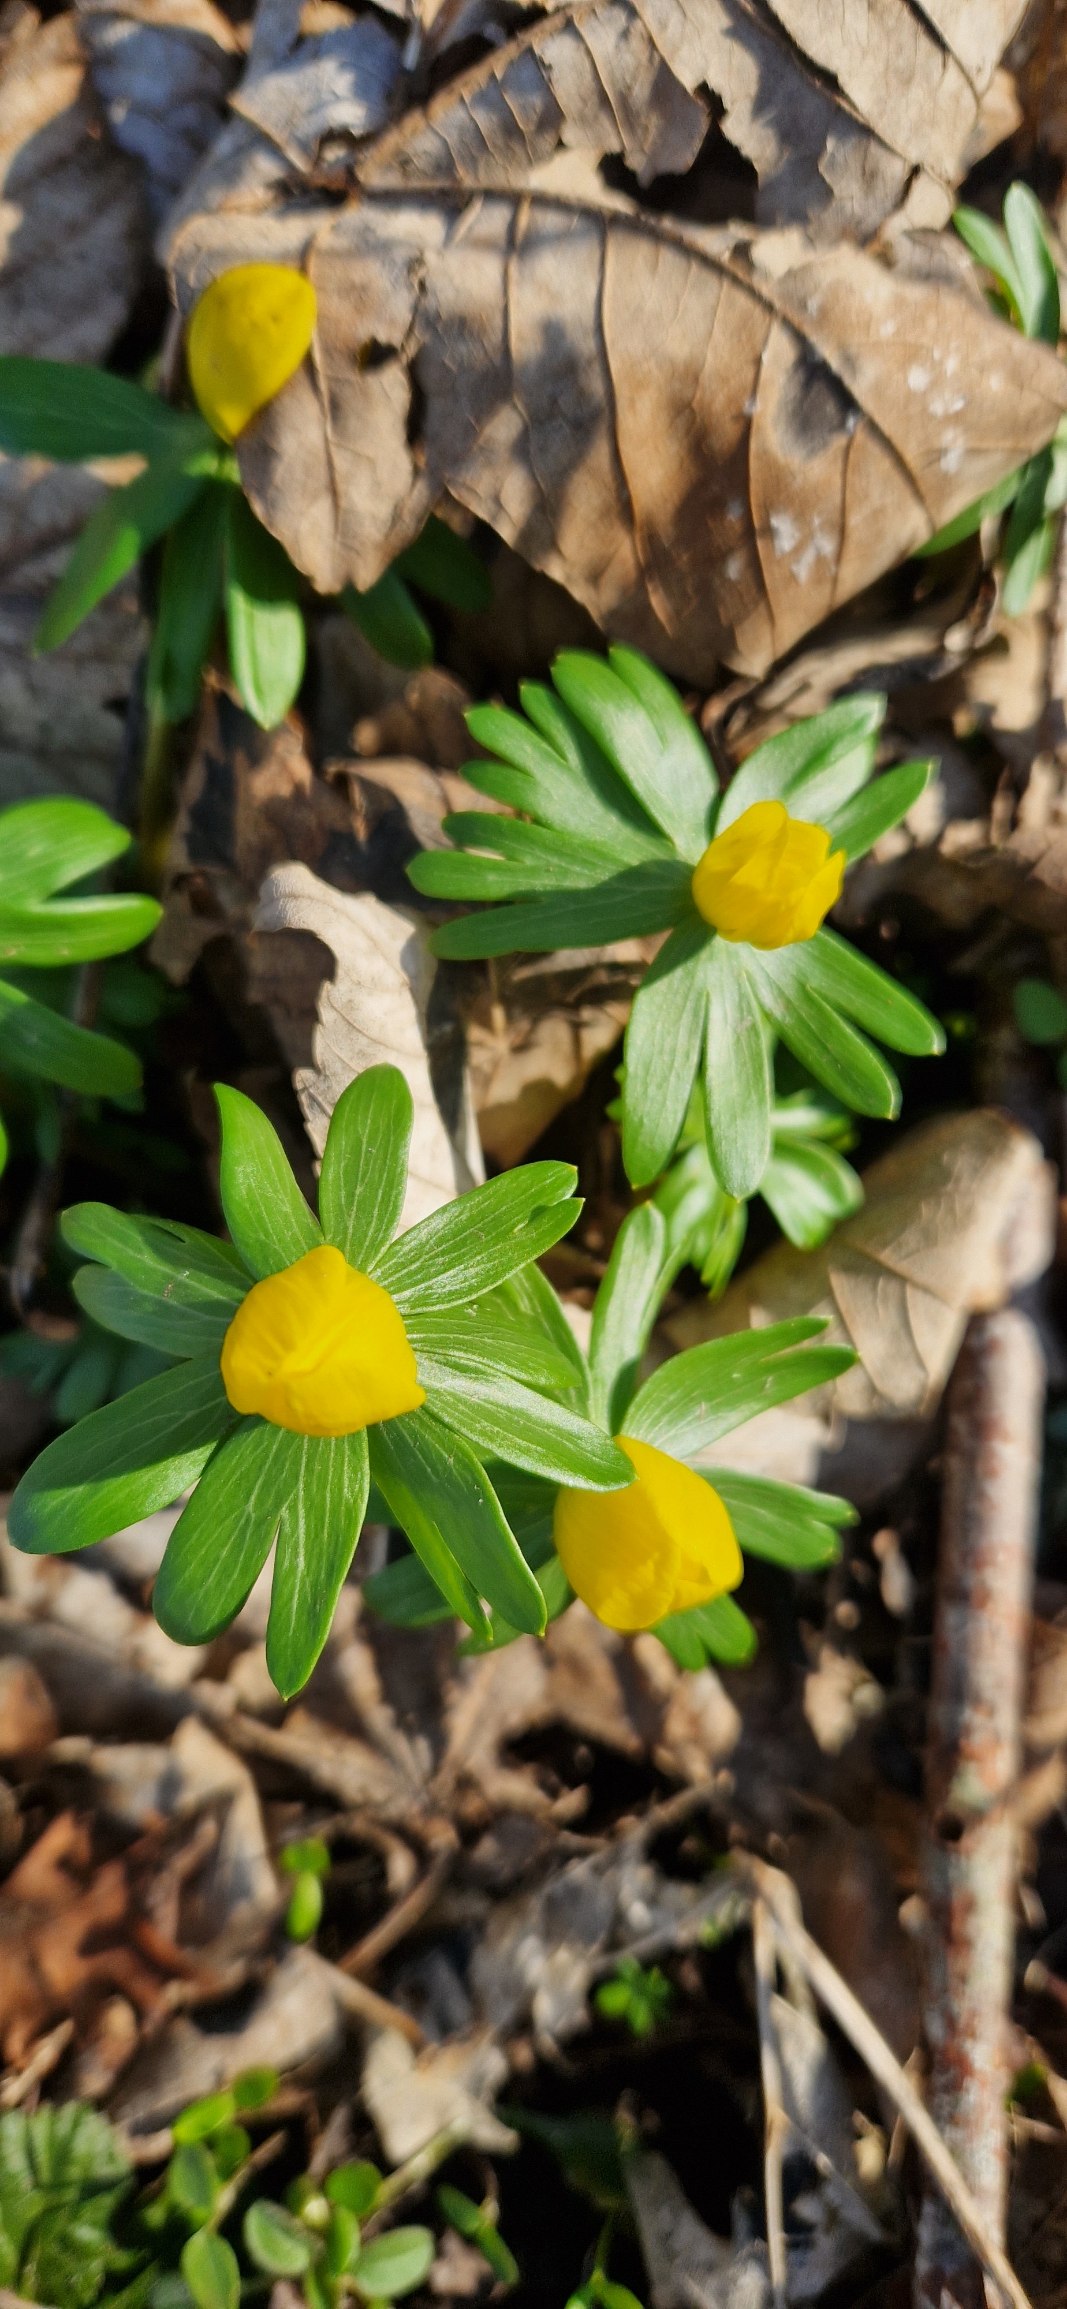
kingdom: Plantae
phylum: Tracheophyta
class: Magnoliopsida
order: Ranunculales
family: Ranunculaceae
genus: Eranthis
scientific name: Eranthis hyemalis
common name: Erantis
